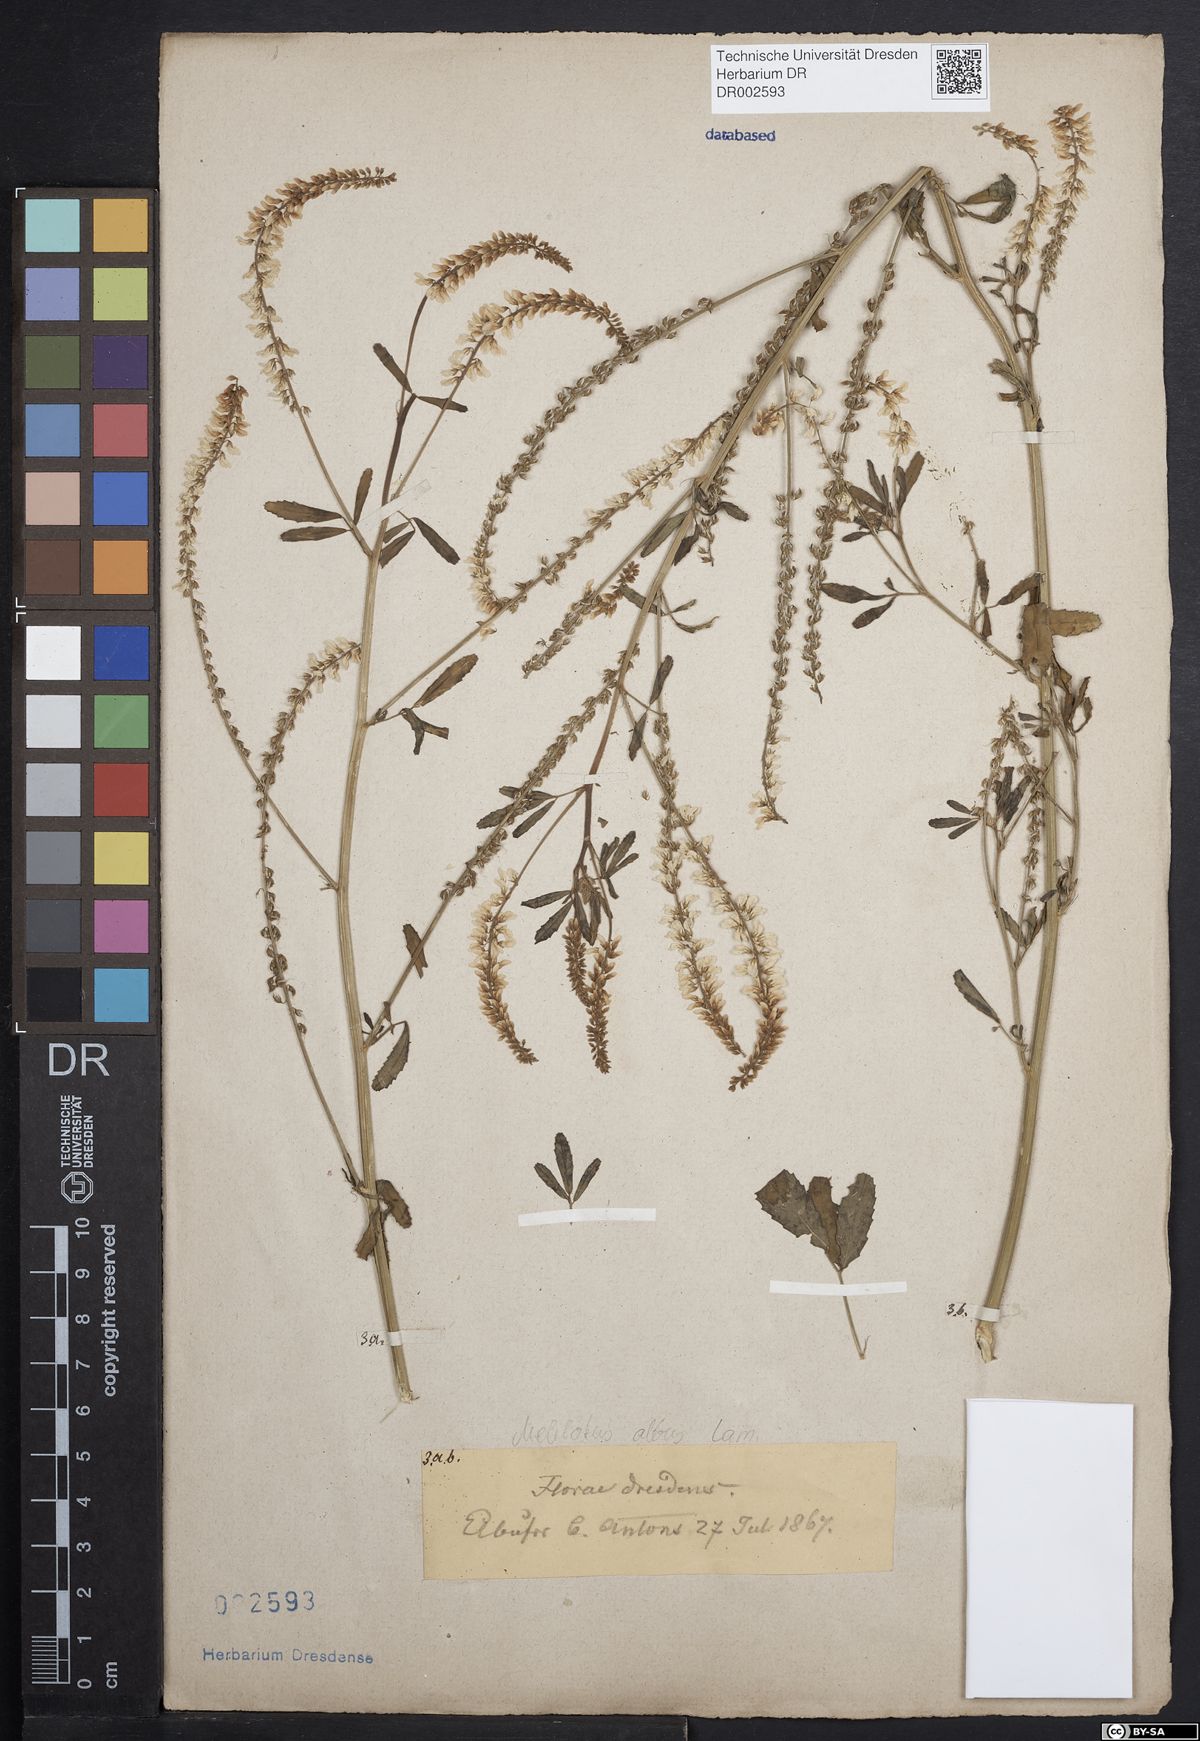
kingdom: Plantae
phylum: Tracheophyta
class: Magnoliopsida
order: Fabales
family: Fabaceae
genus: Melilotus
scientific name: Melilotus albus
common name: White melilot
